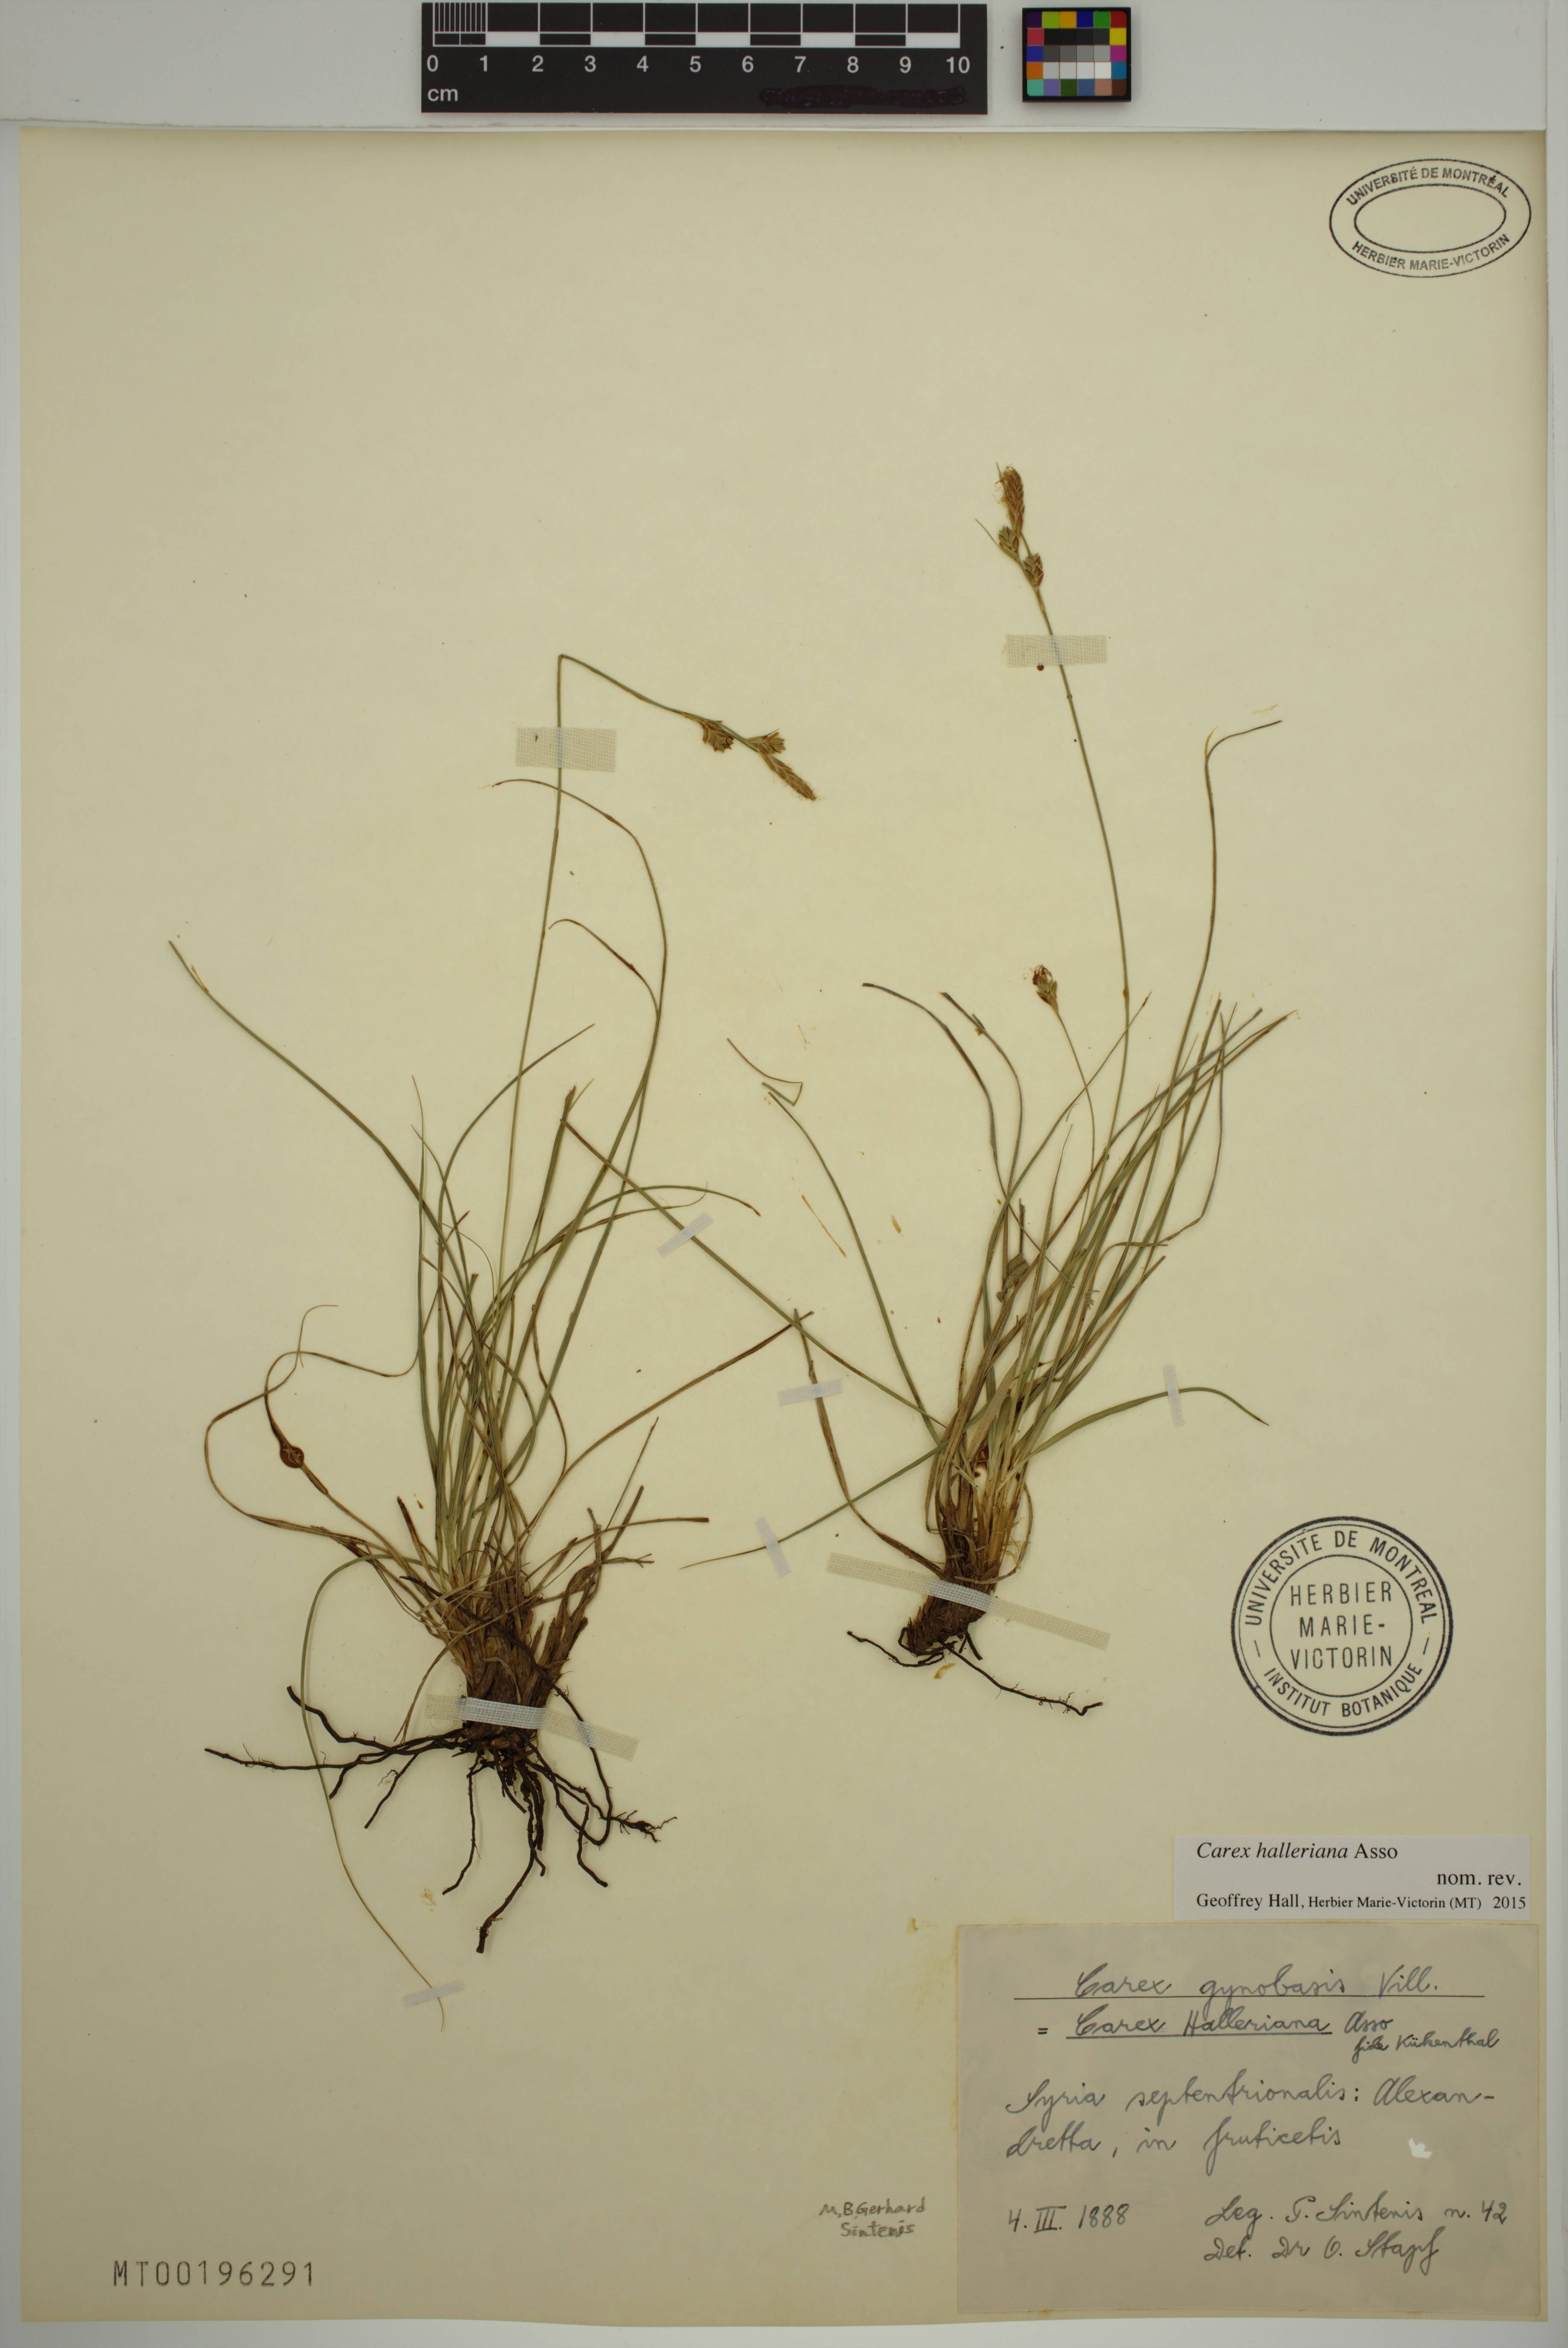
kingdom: Plantae
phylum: Tracheophyta
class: Liliopsida
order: Poales
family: Cyperaceae
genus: Carex
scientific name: Carex halleriana
